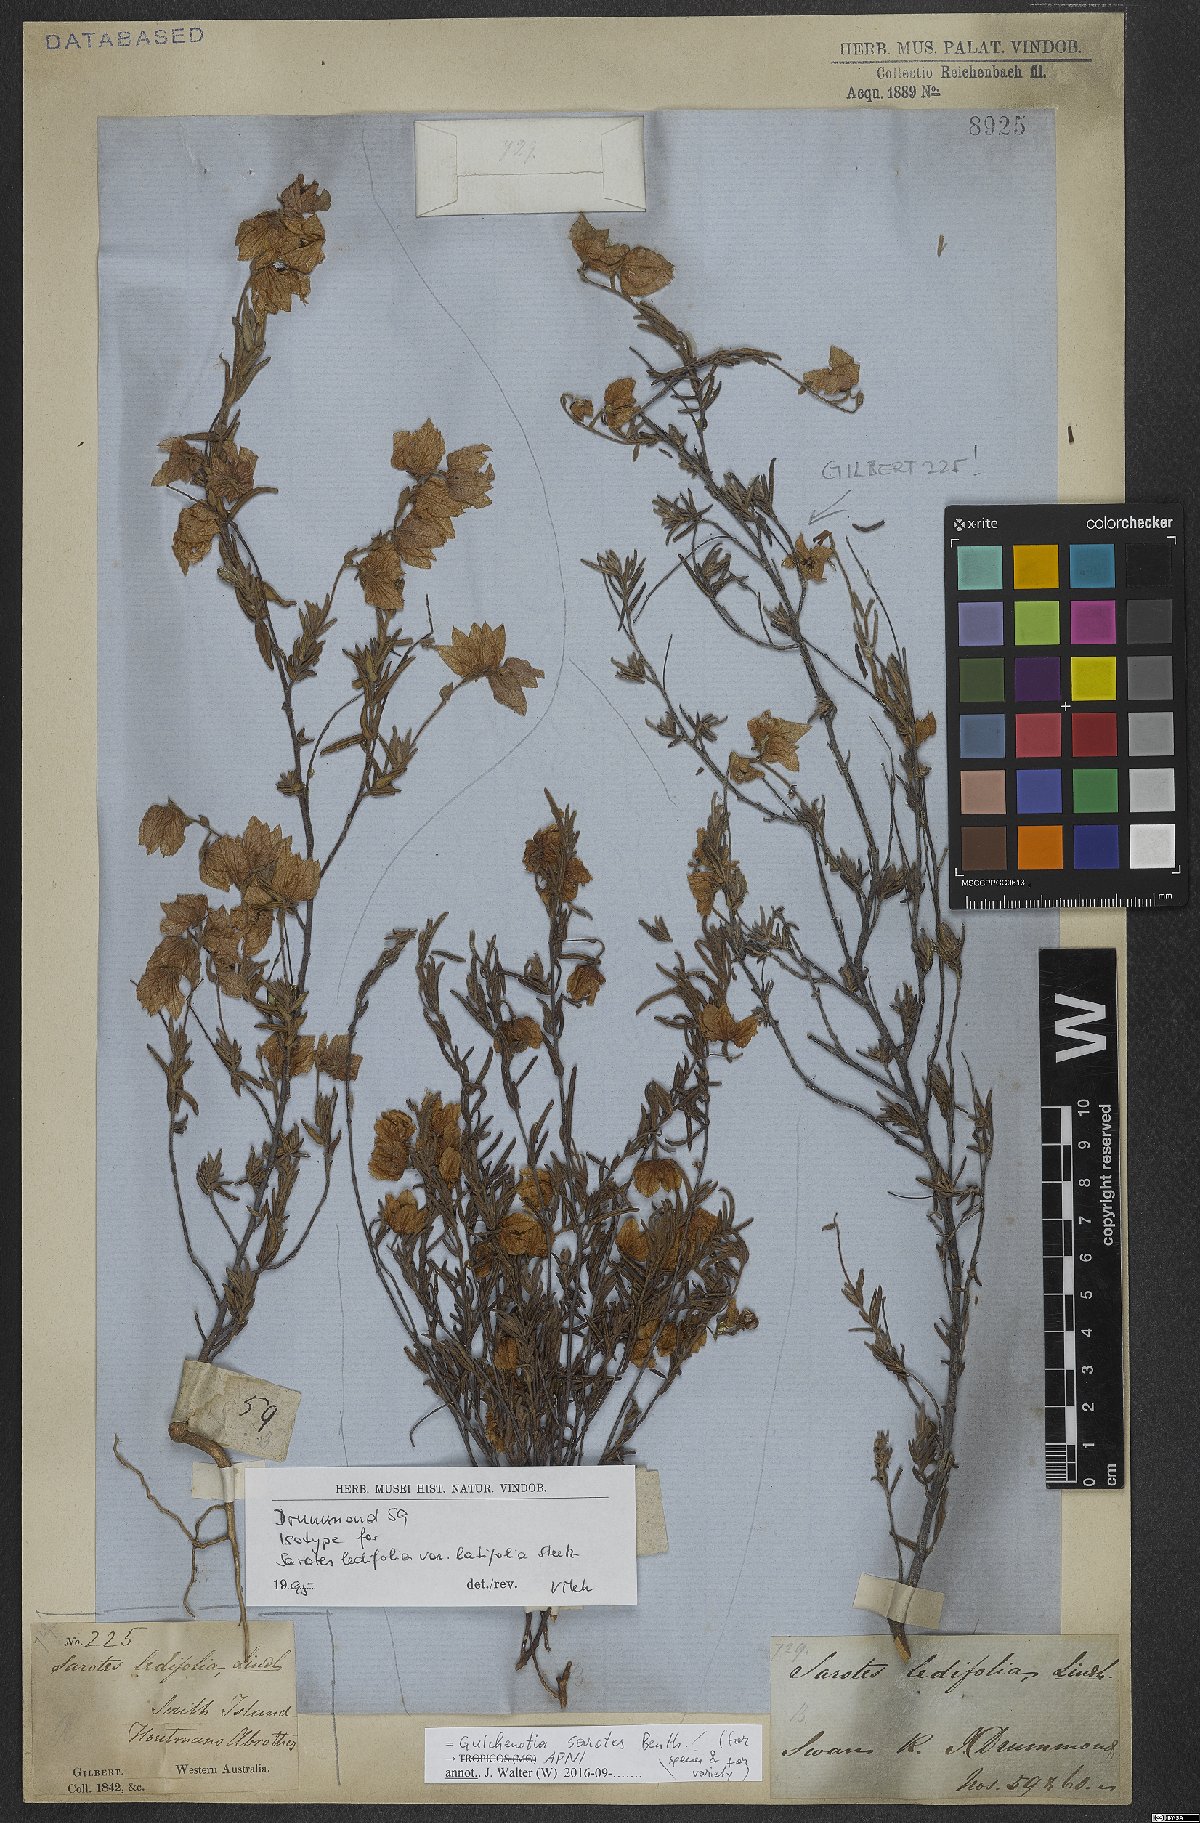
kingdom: Plantae
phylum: Tracheophyta
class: Magnoliopsida
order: Malvales
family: Malvaceae
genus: Guichenotia
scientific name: Guichenotia sarotes
